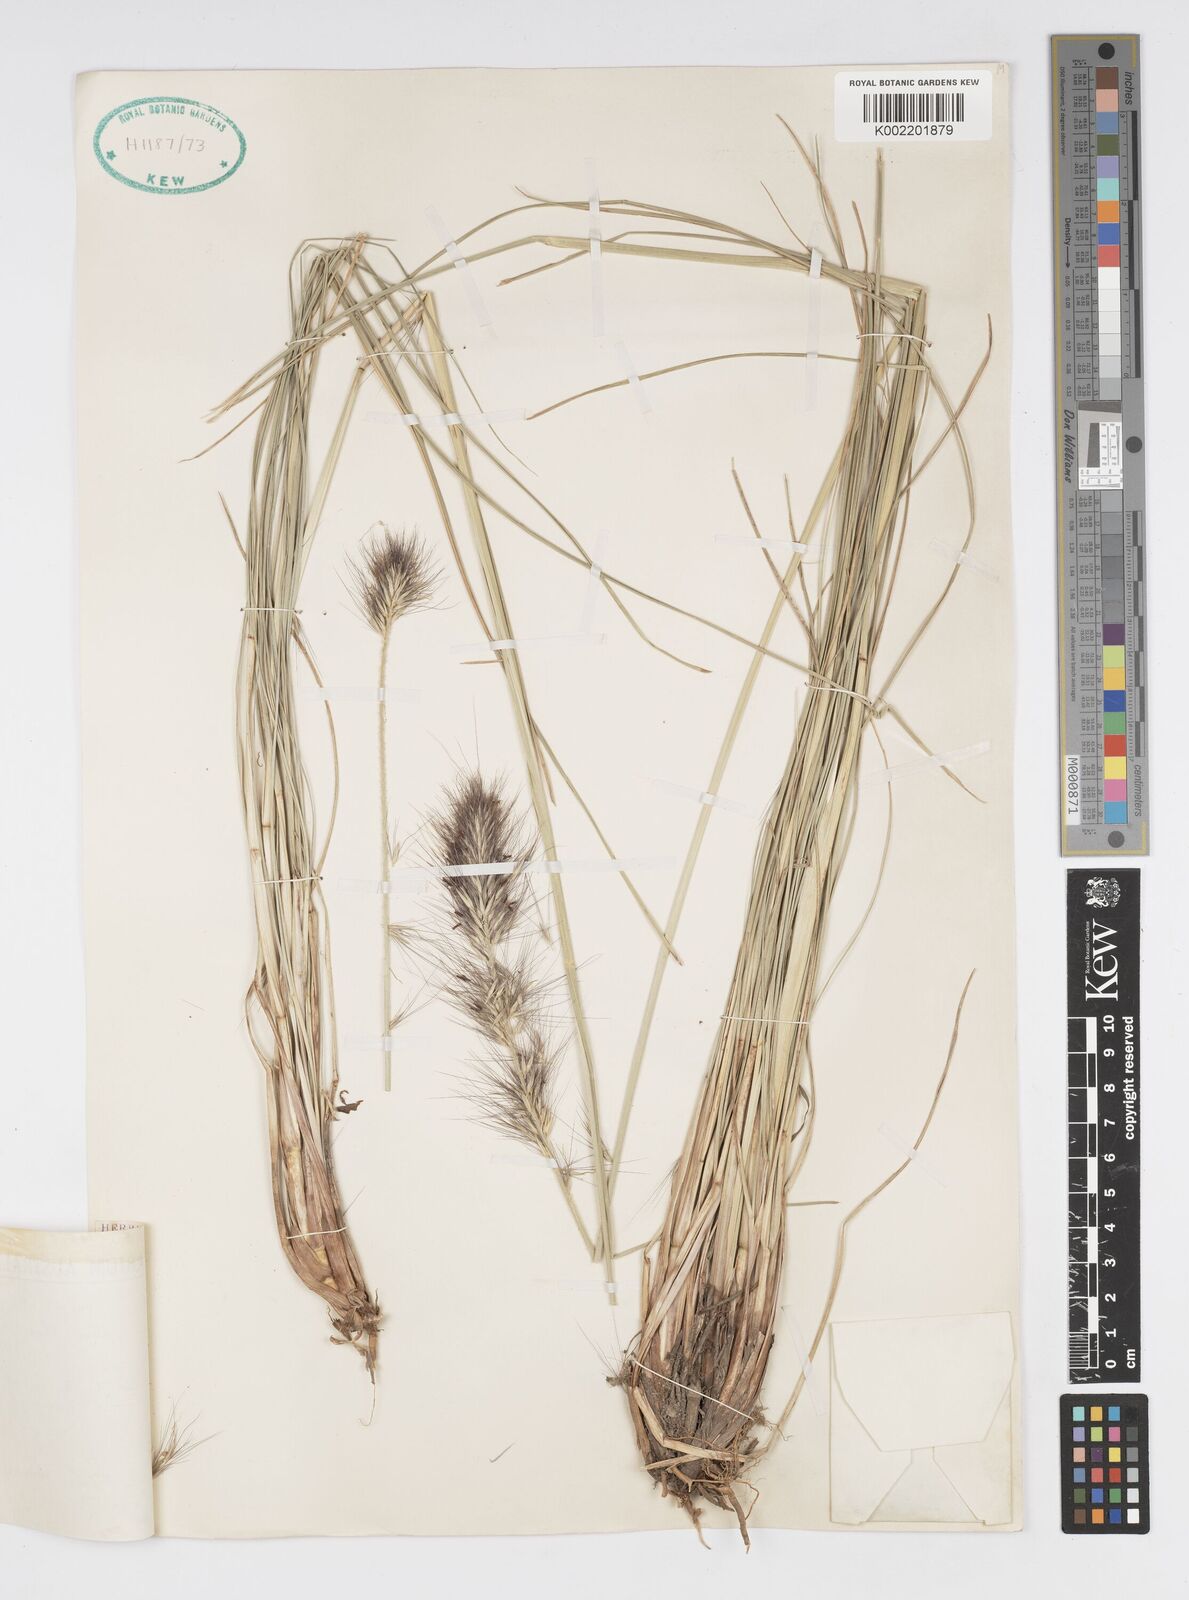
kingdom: Plantae
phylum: Tracheophyta
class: Liliopsida
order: Poales
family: Poaceae
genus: Cenchrus
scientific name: Cenchrus alopecuroides
